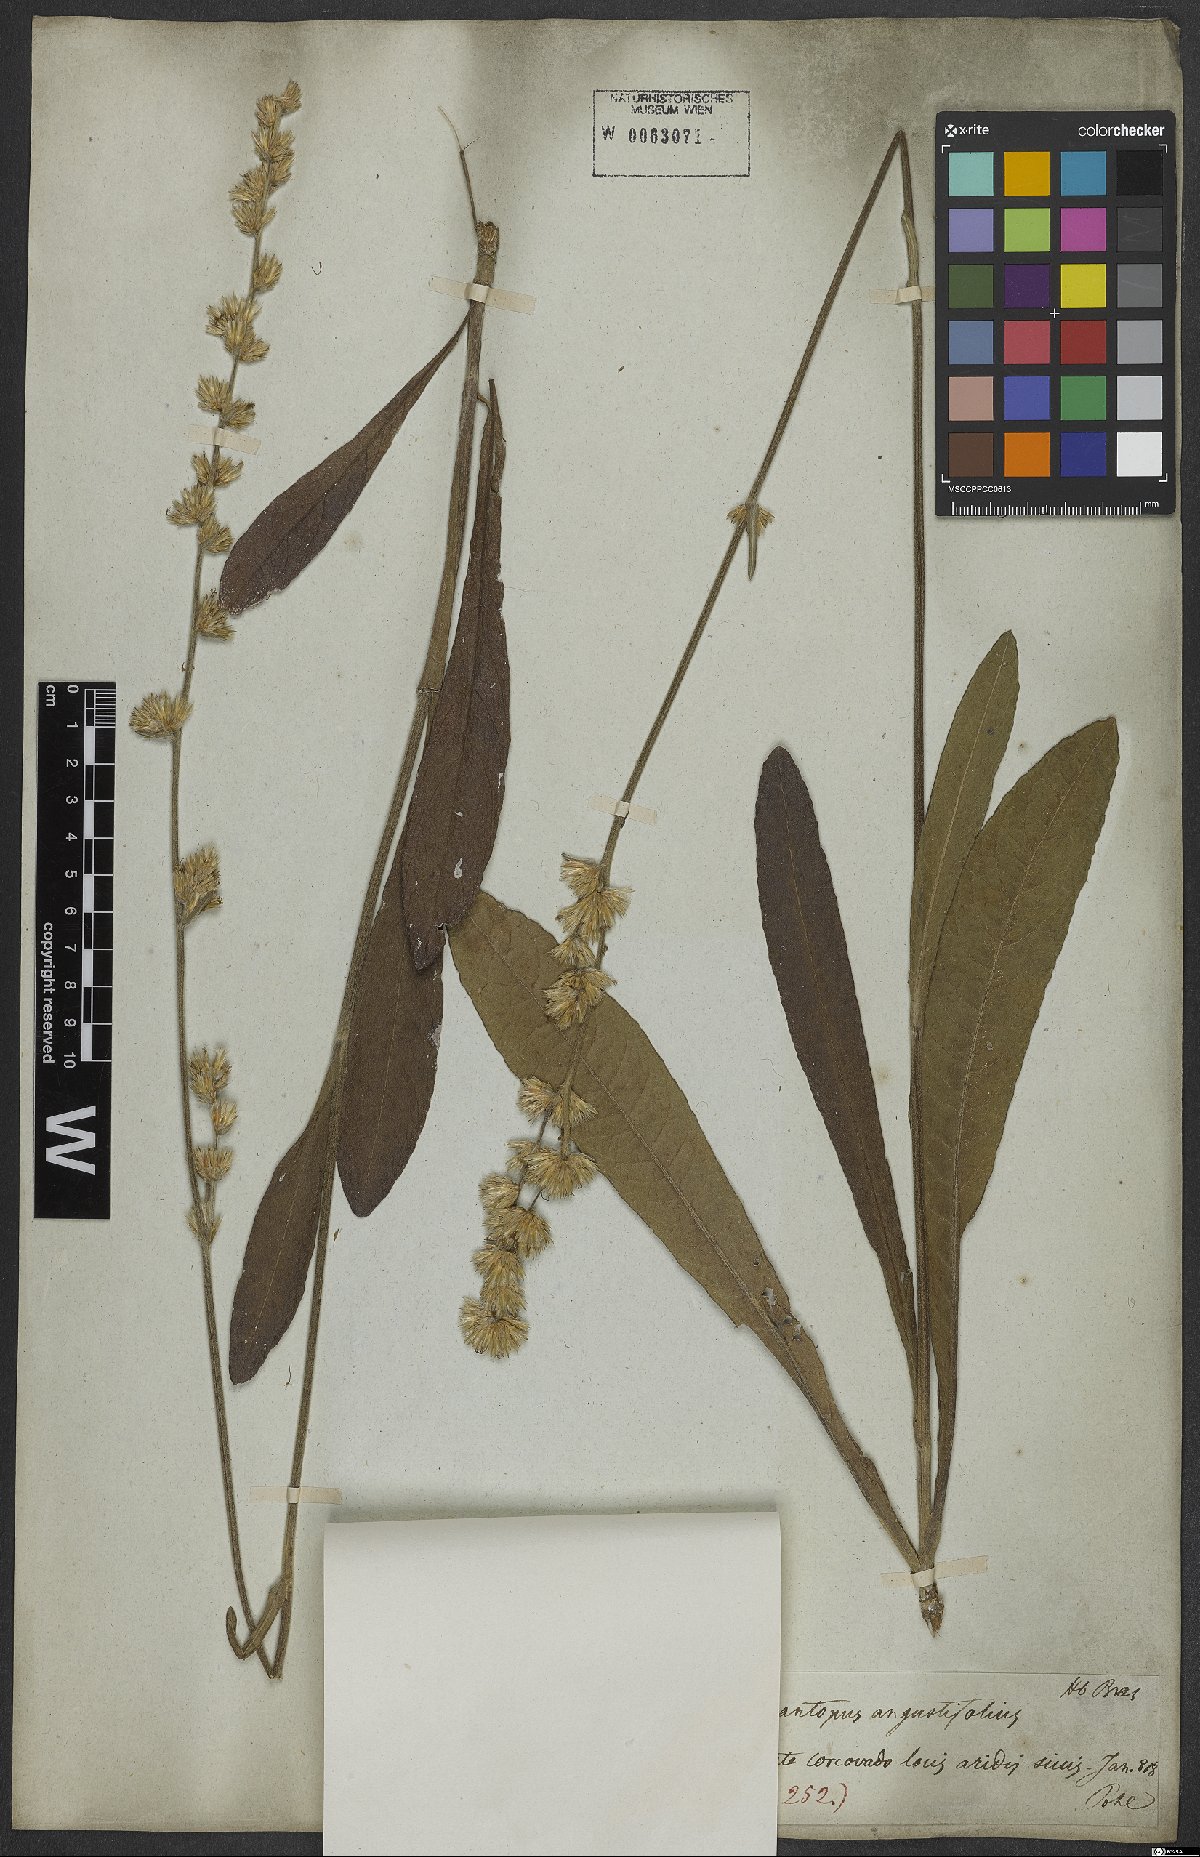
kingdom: Plantae
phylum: Tracheophyta
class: Magnoliopsida
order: Asterales
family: Asteraceae
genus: Orthopappus
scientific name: Orthopappus angustifolius
